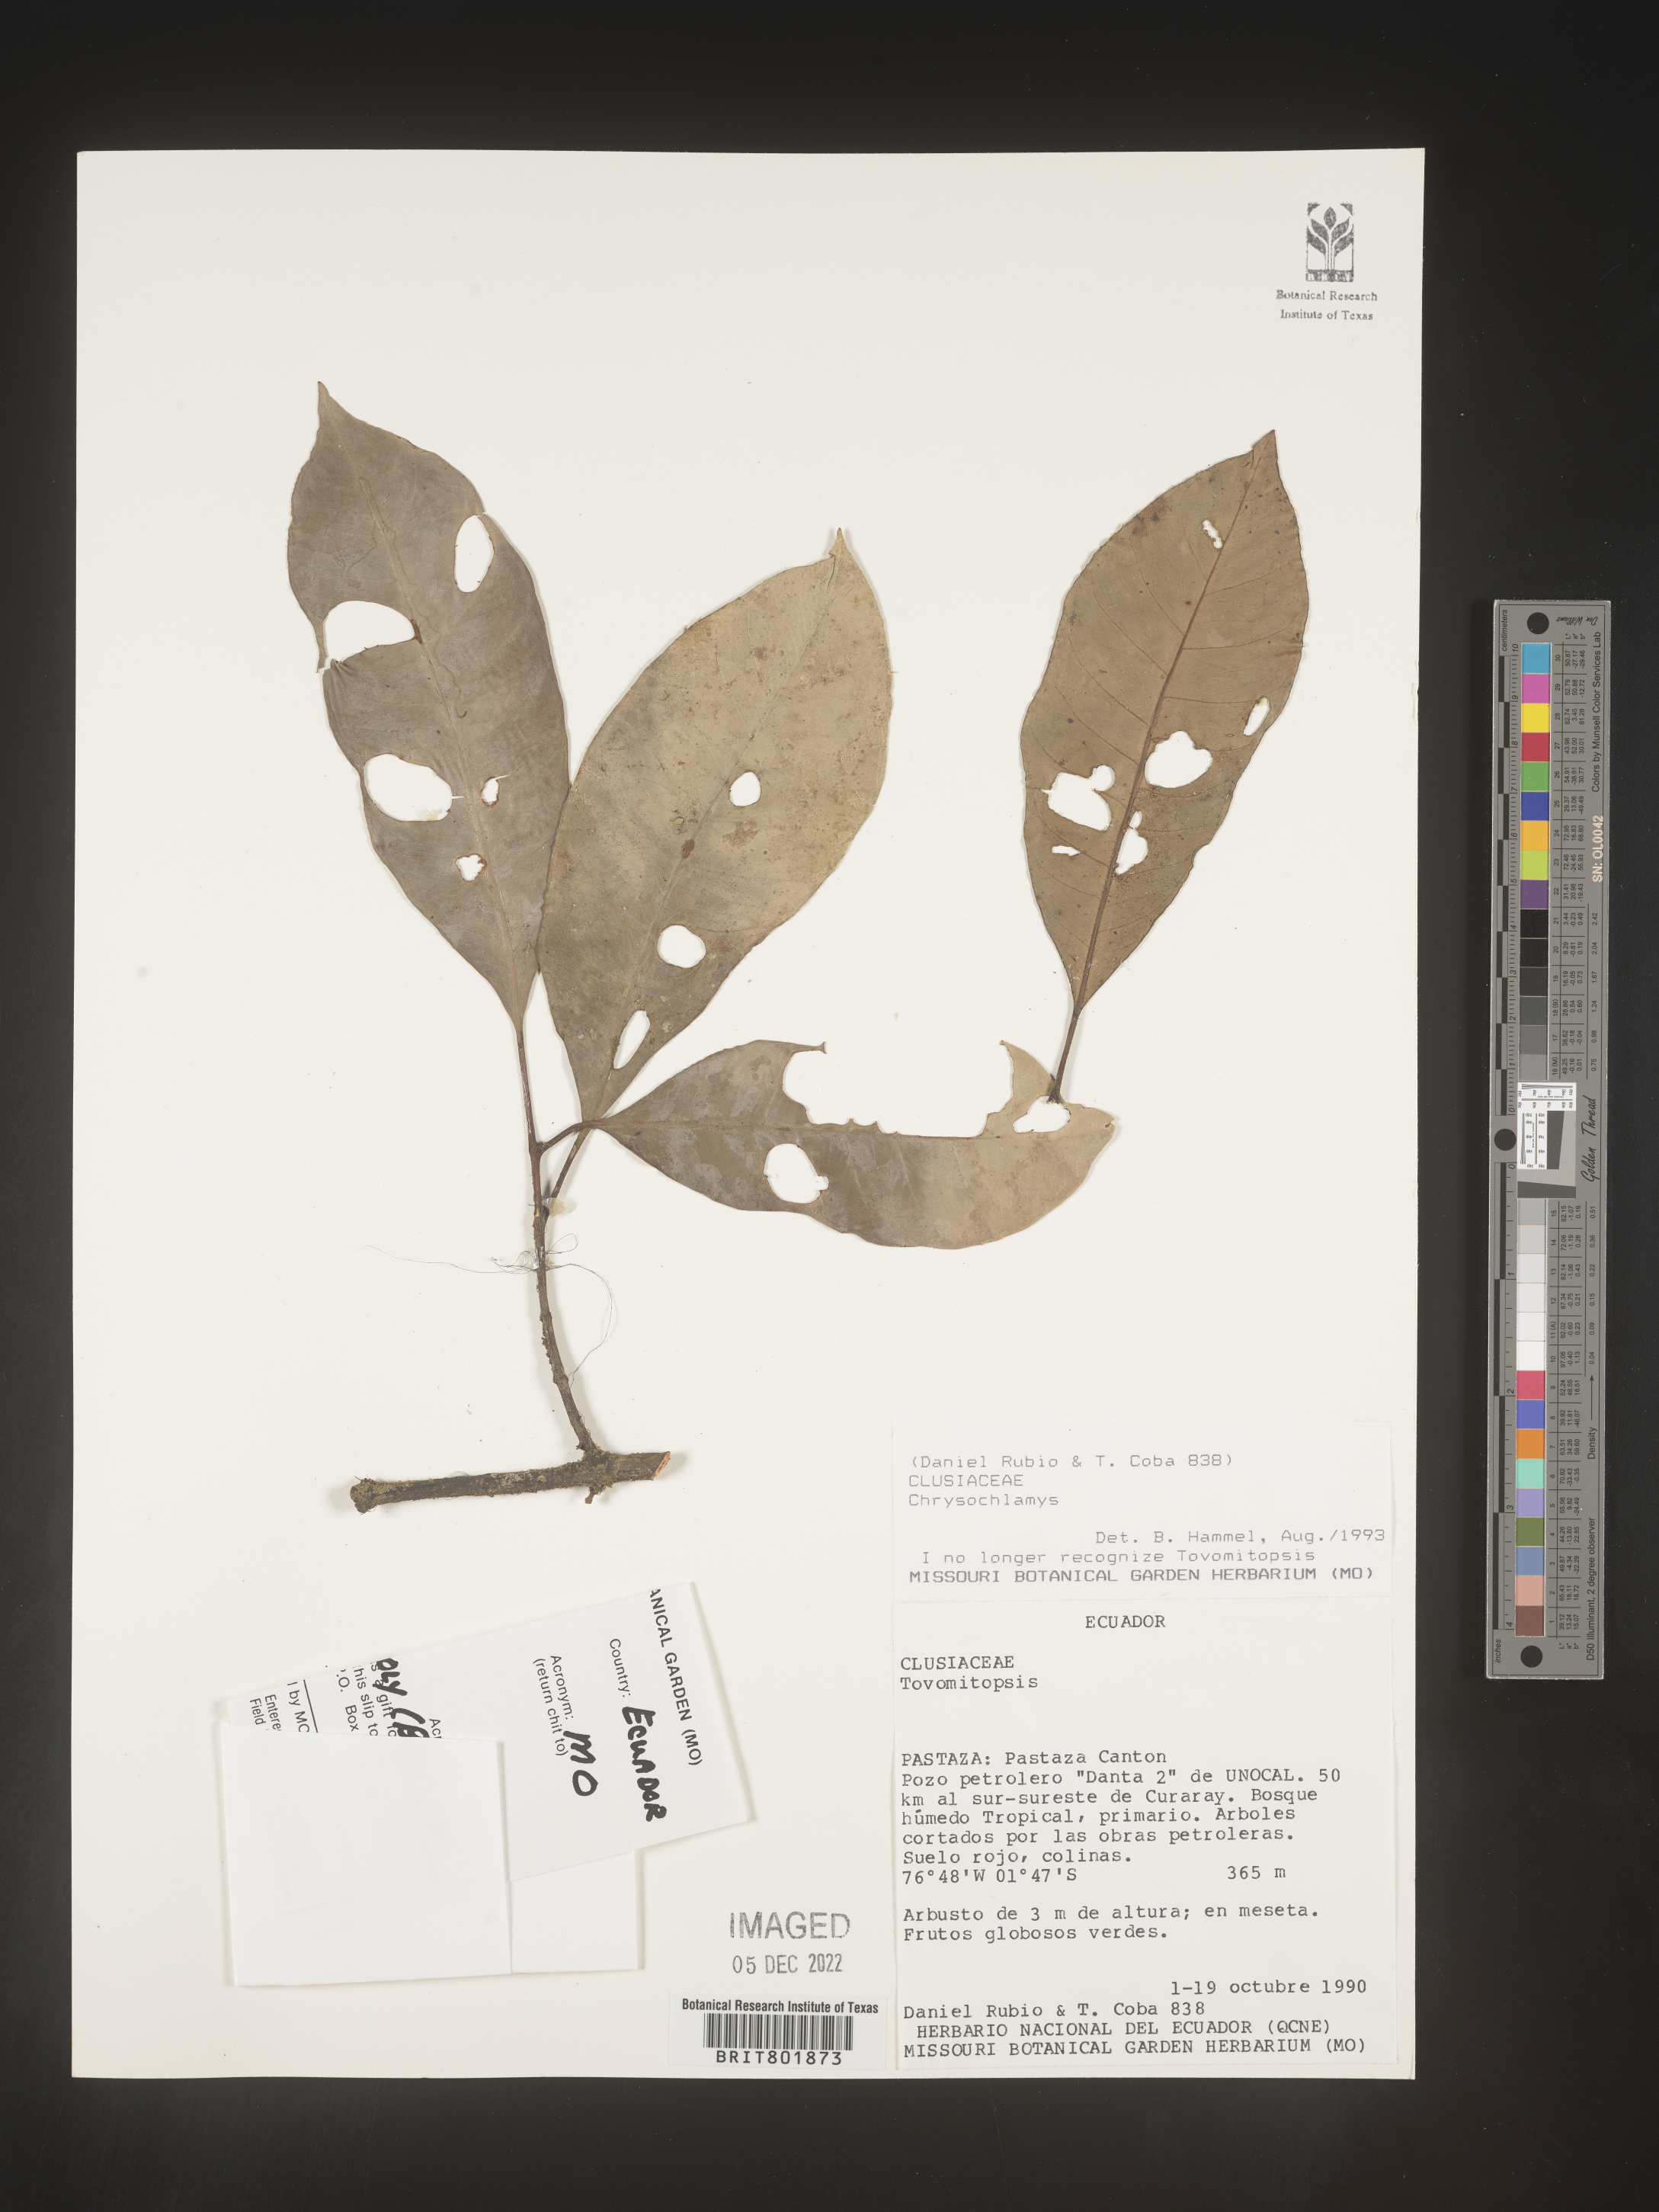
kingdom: Plantae
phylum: Tracheophyta
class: Magnoliopsida
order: Malpighiales
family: Clusiaceae
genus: Chrysochlamys
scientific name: Chrysochlamys
